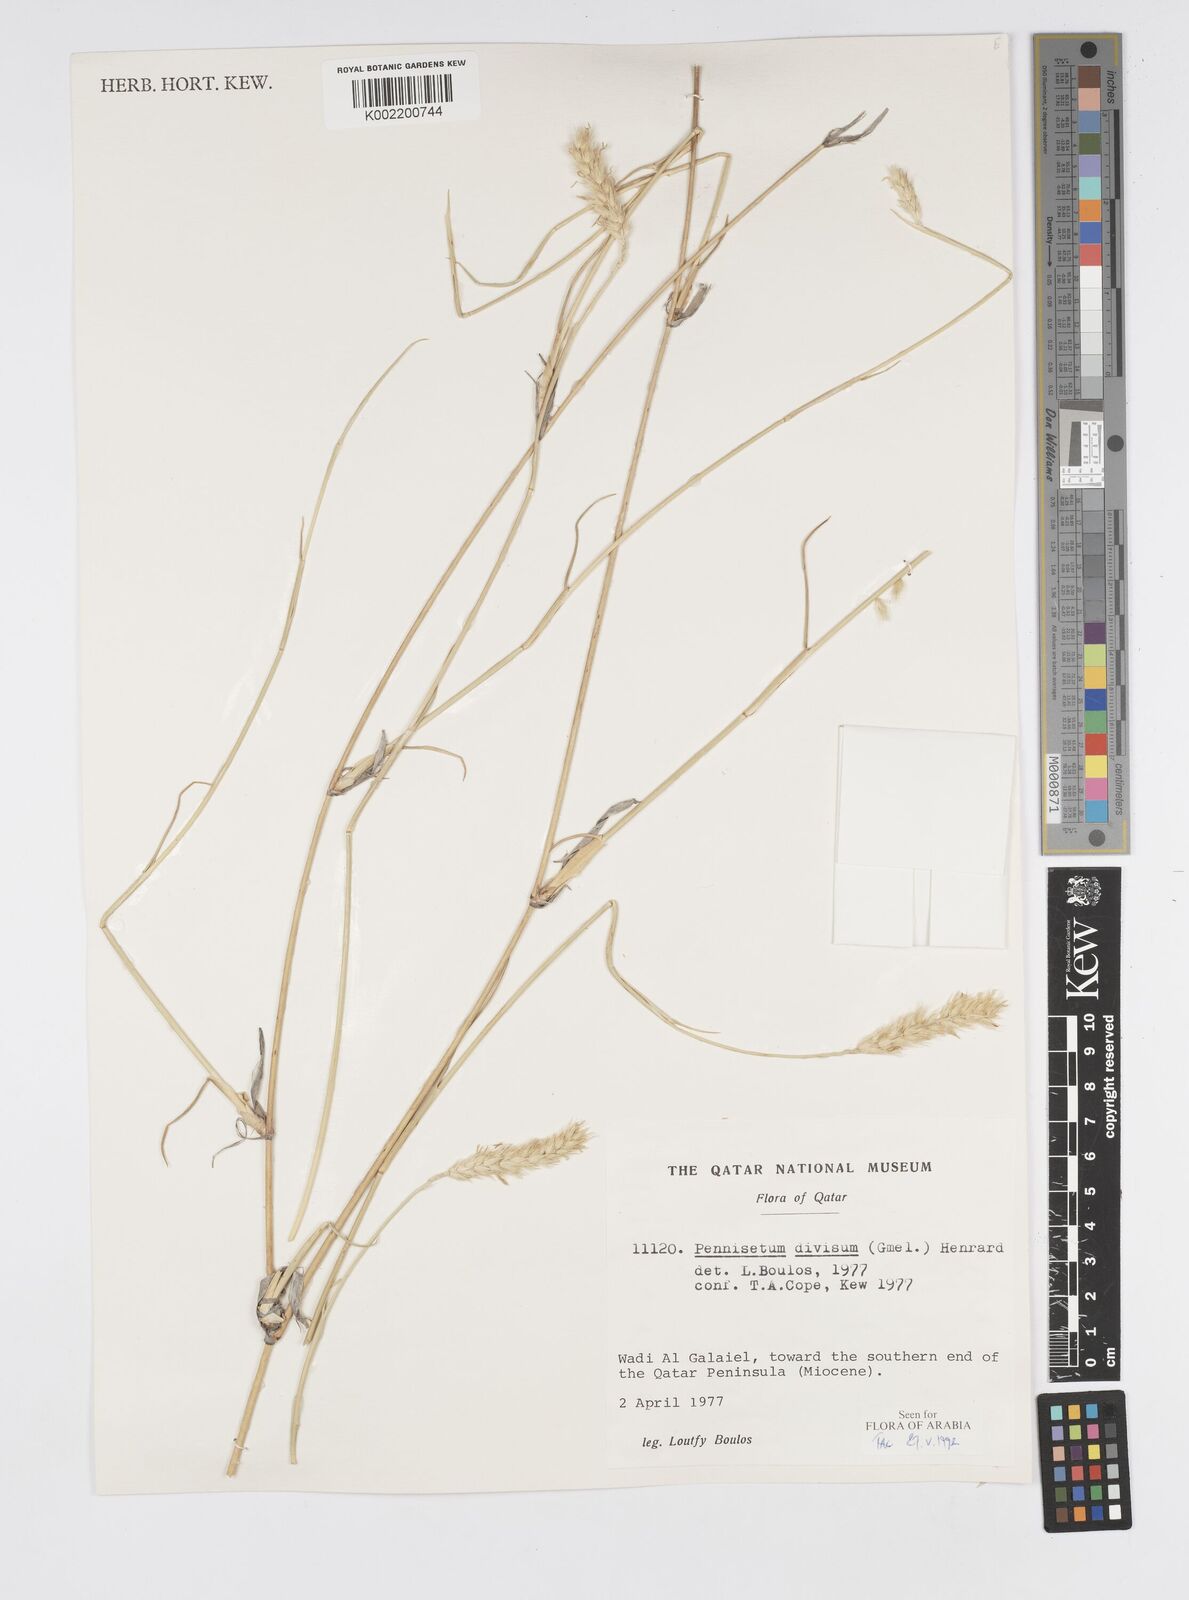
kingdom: Plantae
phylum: Tracheophyta
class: Liliopsida
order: Poales
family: Poaceae
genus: Cenchrus
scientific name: Cenchrus divisus
